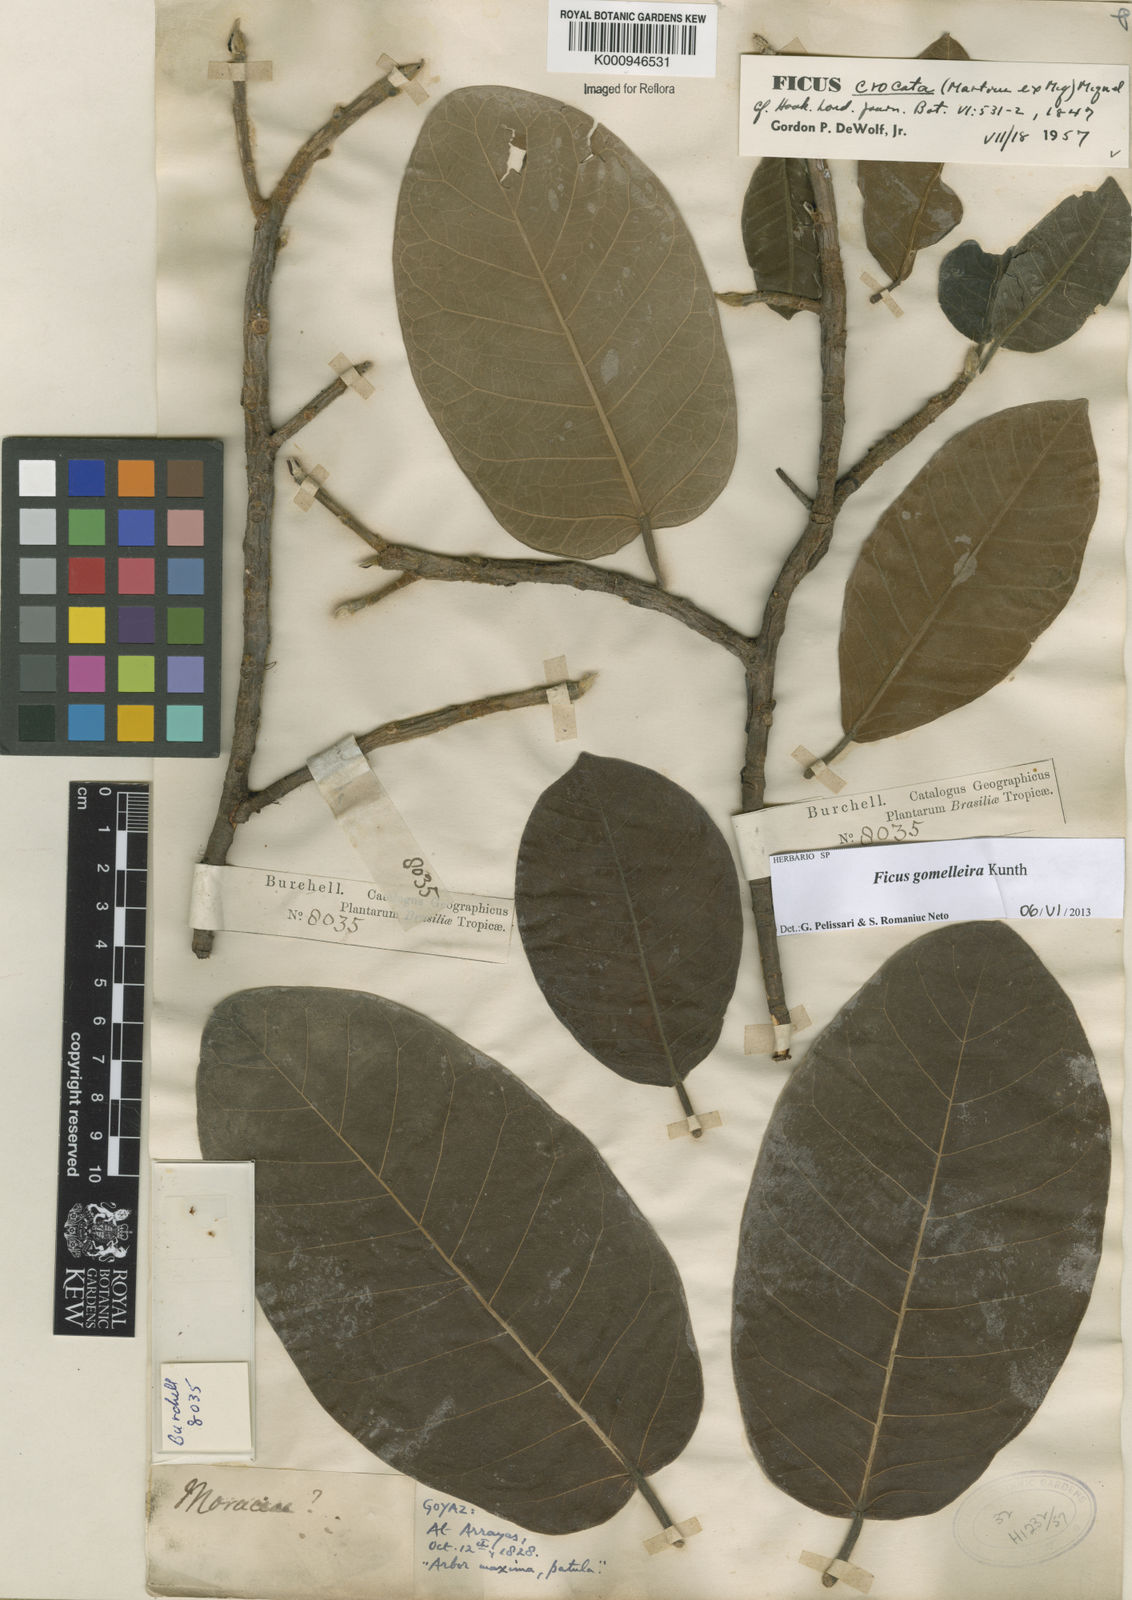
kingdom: Plantae
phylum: Tracheophyta
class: Magnoliopsida
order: Rosales
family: Moraceae
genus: Ficus
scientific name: Ficus gomelleira
